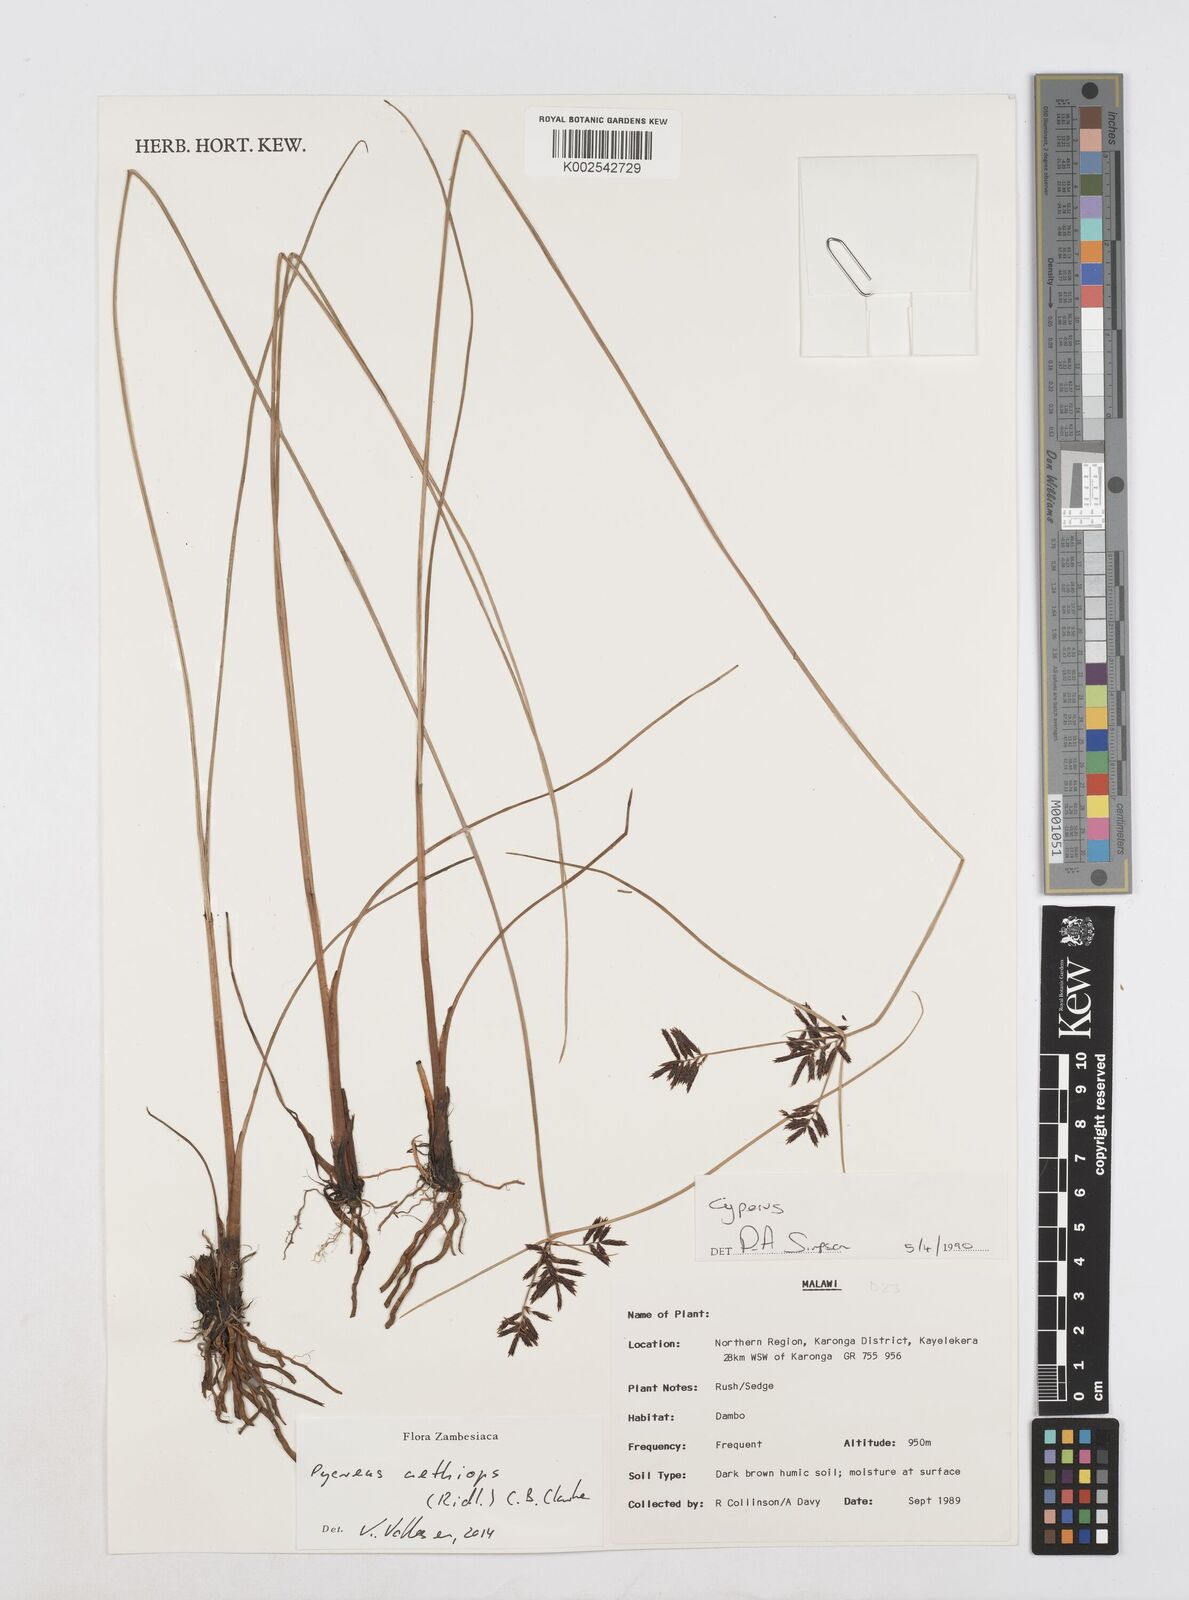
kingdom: Plantae
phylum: Tracheophyta
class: Liliopsida
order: Poales
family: Cyperaceae
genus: Cyperus
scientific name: Cyperus aethiops
